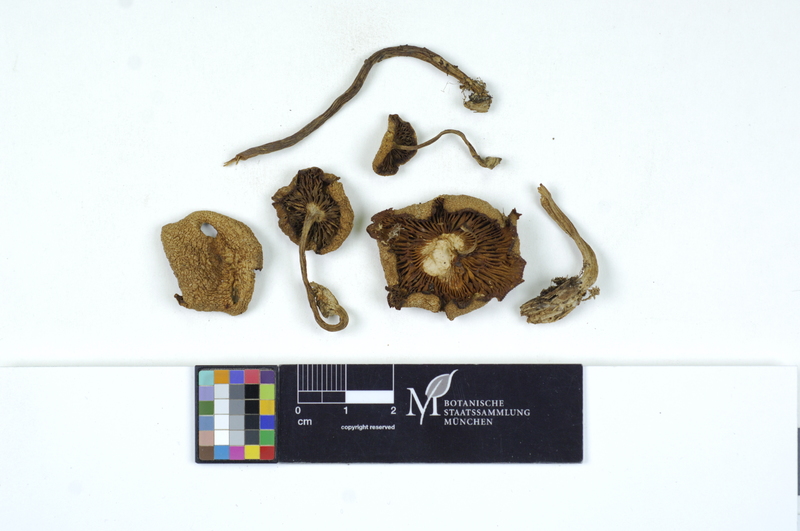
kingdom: Fungi
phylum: Basidiomycota
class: Agaricomycetes
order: Agaricales
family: Tricholomataceae
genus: Tricholomopsis
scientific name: Tricholomopsis decora
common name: Prunes and custard
